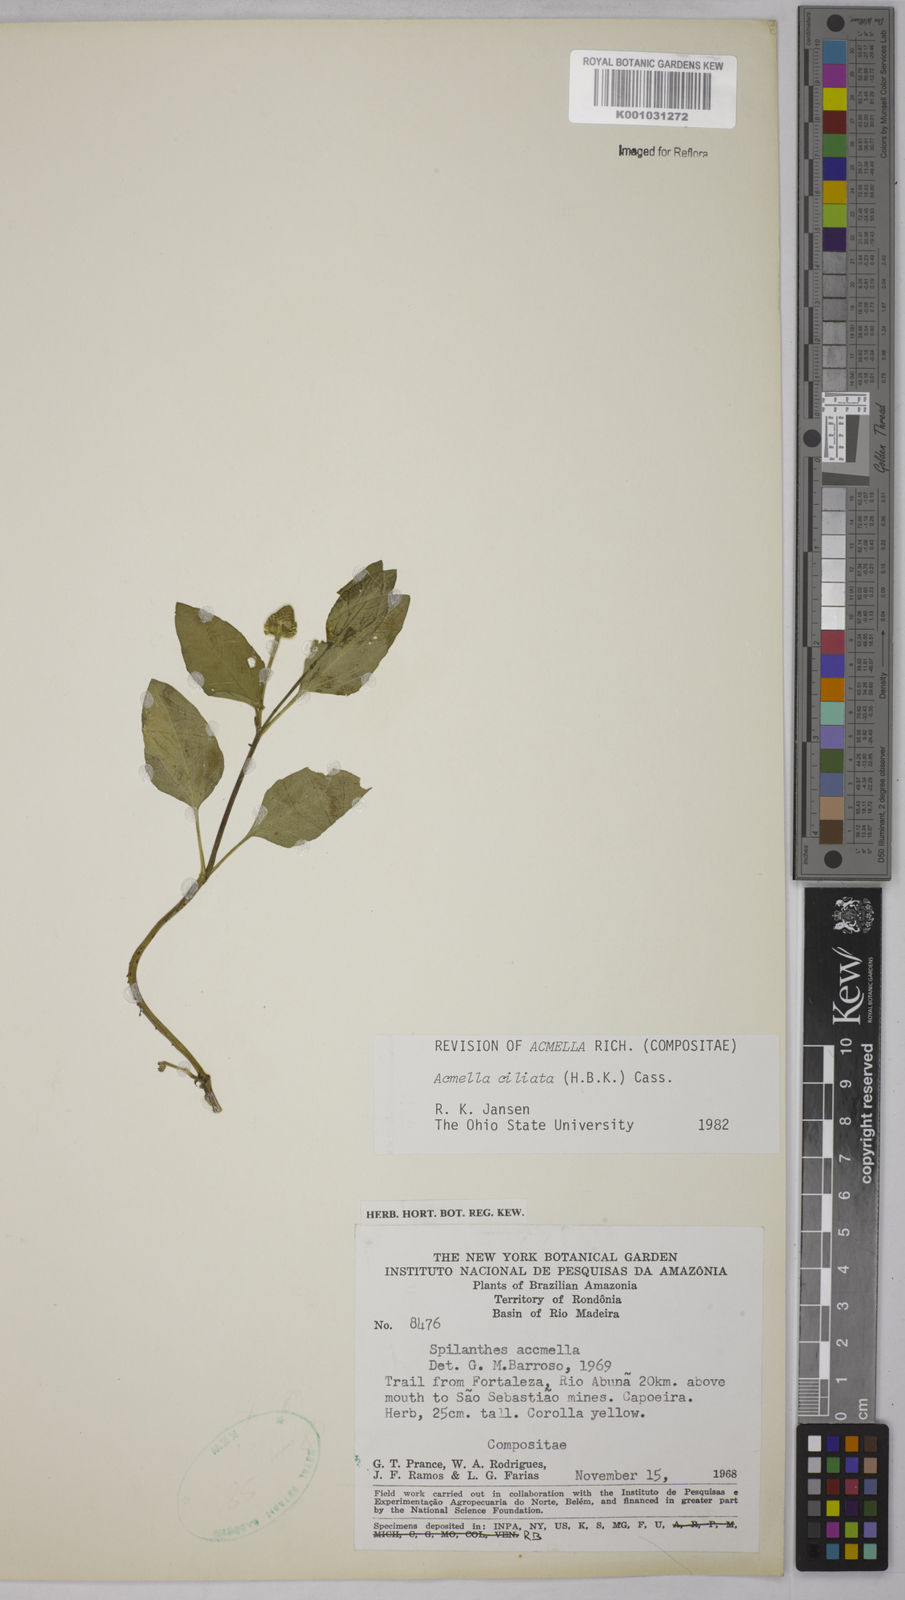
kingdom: Plantae
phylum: Tracheophyta
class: Magnoliopsida
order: Asterales
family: Asteraceae
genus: Acmella
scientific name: Acmella ciliata
